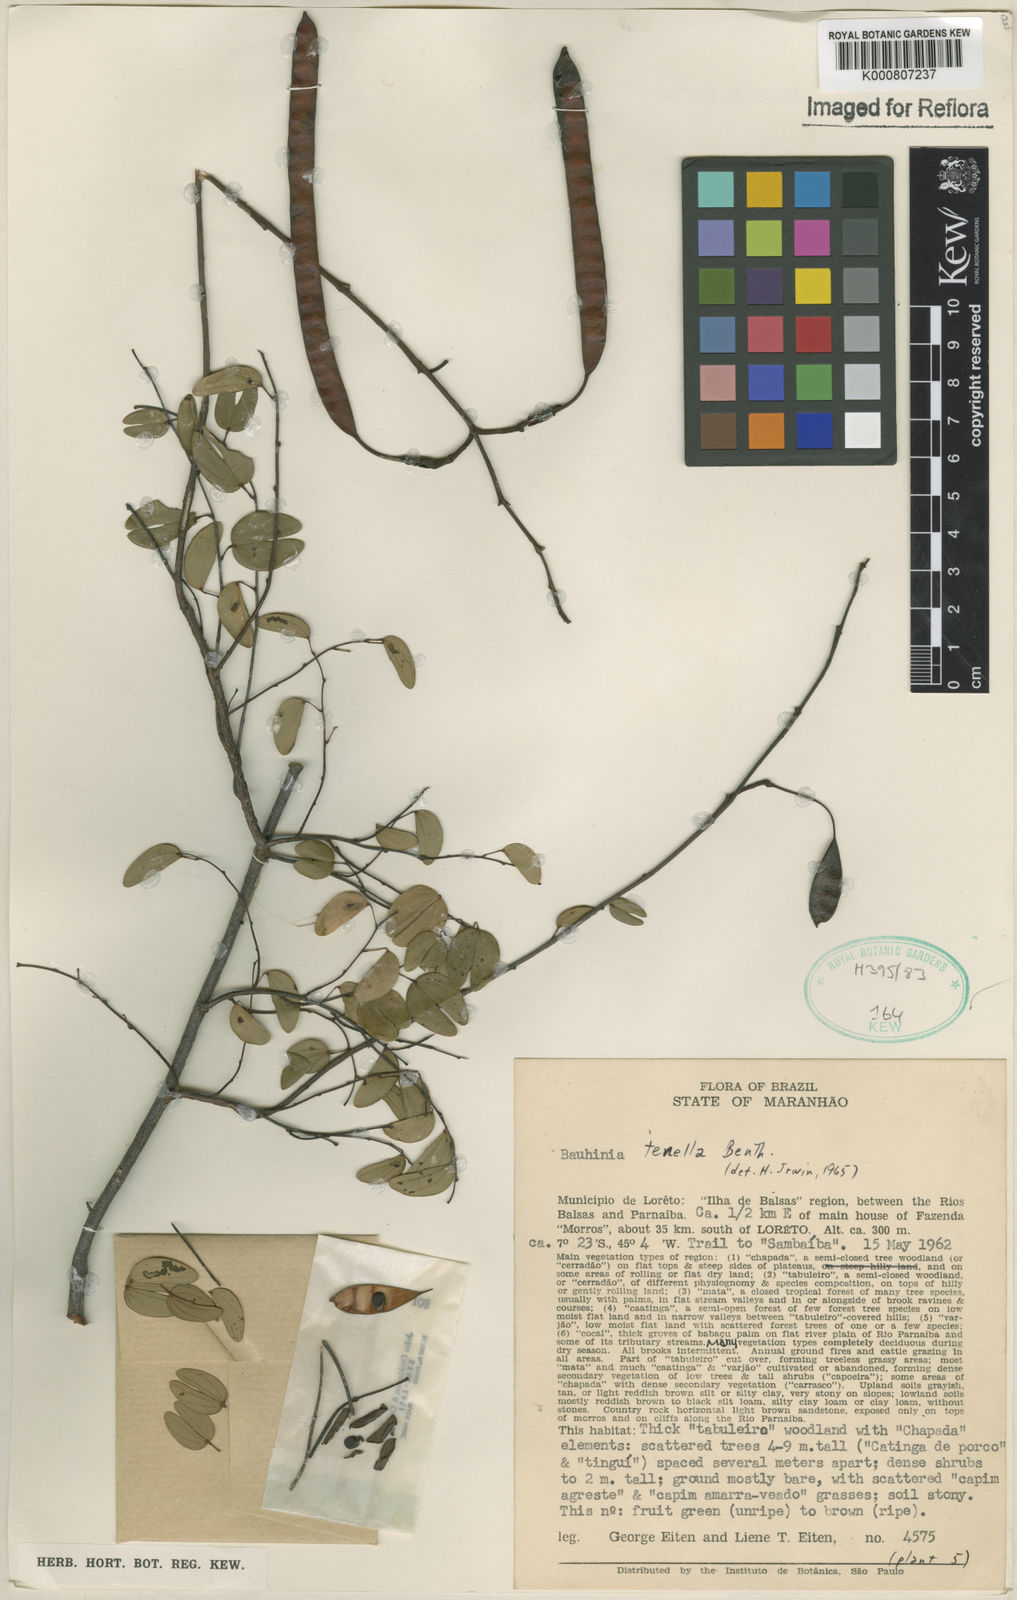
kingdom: Plantae
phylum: Tracheophyta
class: Magnoliopsida
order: Fabales
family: Fabaceae
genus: Bauhinia
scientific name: Bauhinia tenella
